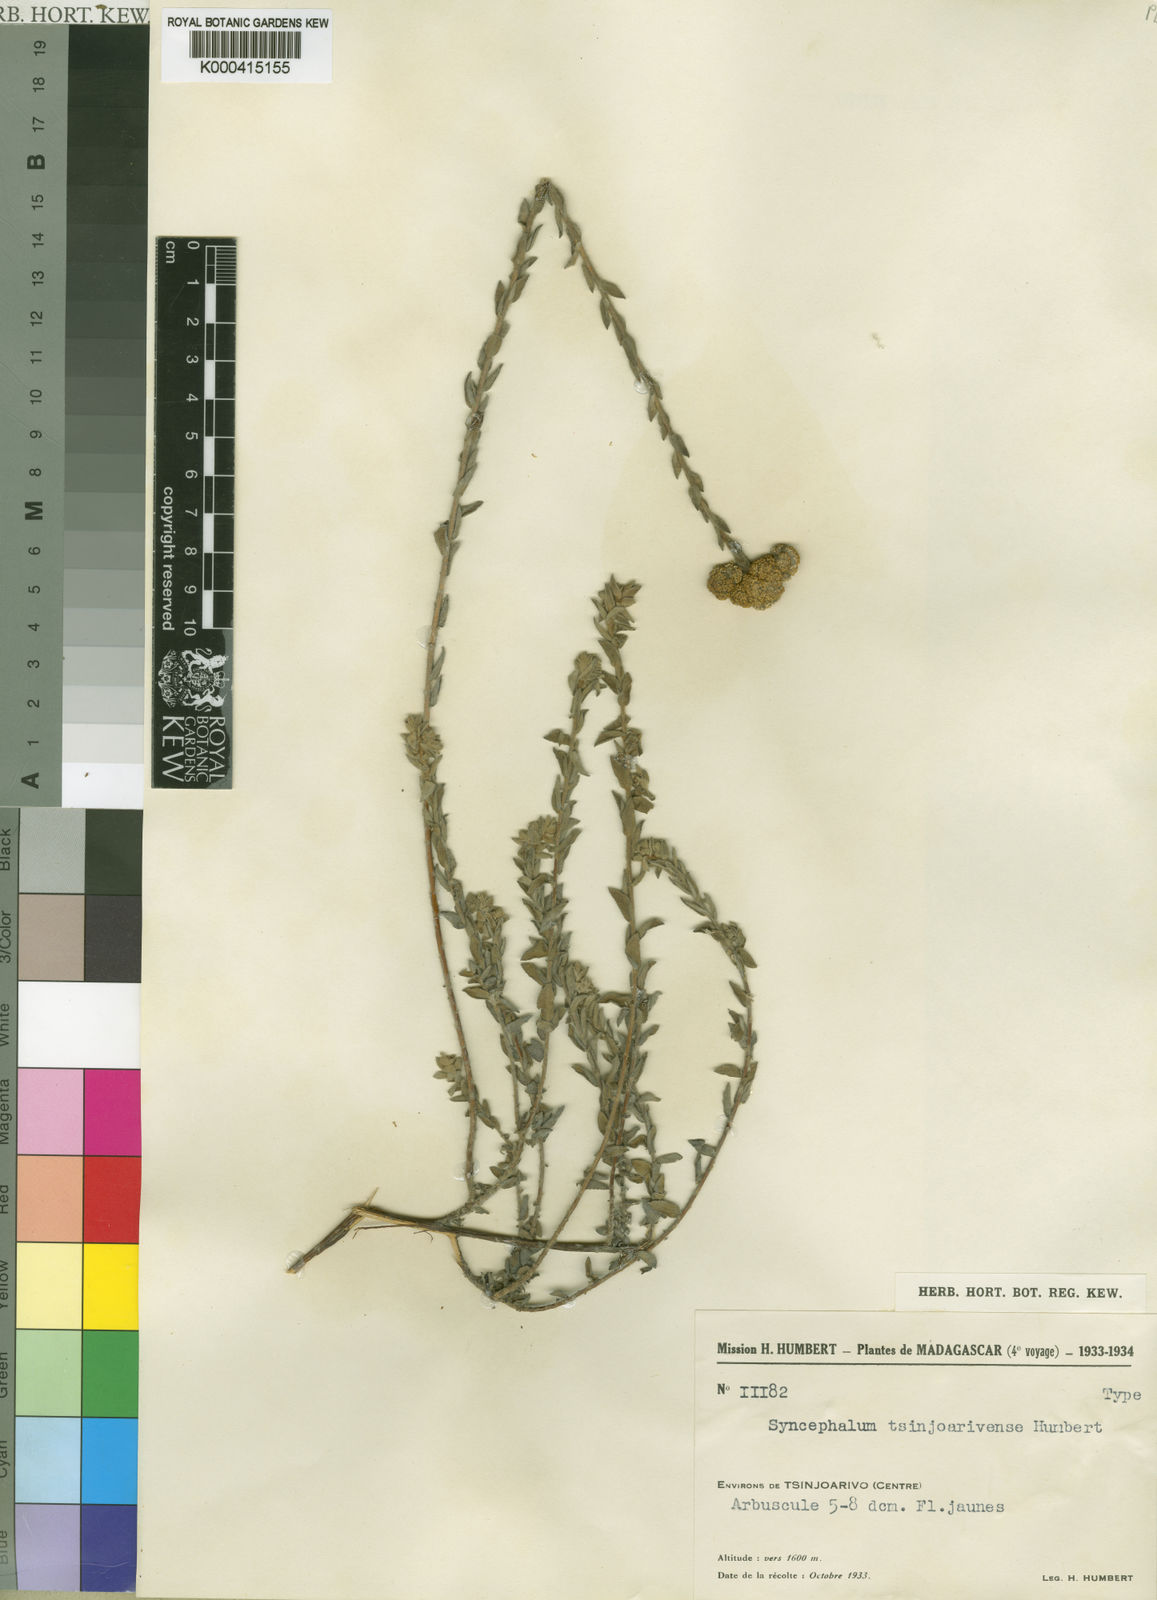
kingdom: Plantae
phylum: Tracheophyta
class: Magnoliopsida
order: Asterales
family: Asteraceae
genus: Syncephalum
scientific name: Syncephalum tsinjoarivense
